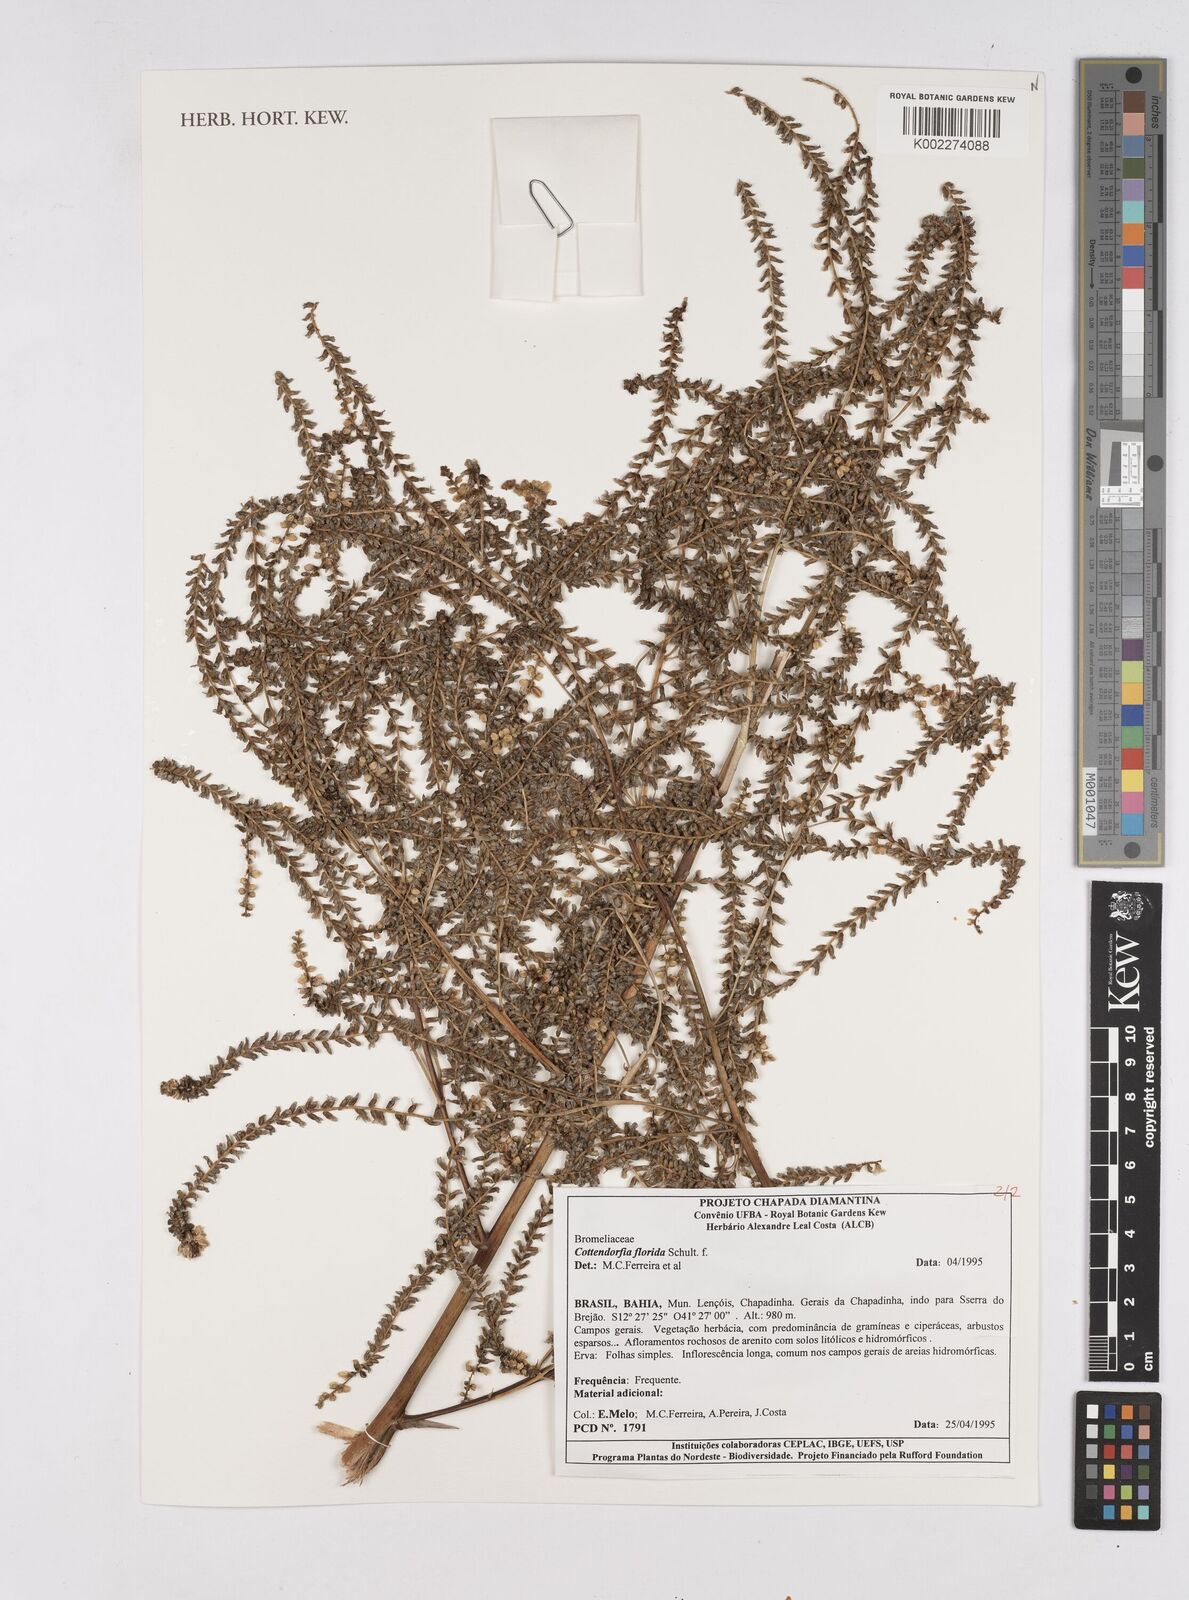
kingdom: Plantae
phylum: Tracheophyta
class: Liliopsida
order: Poales
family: Bromeliaceae
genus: Cottendorfia
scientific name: Cottendorfia florida
